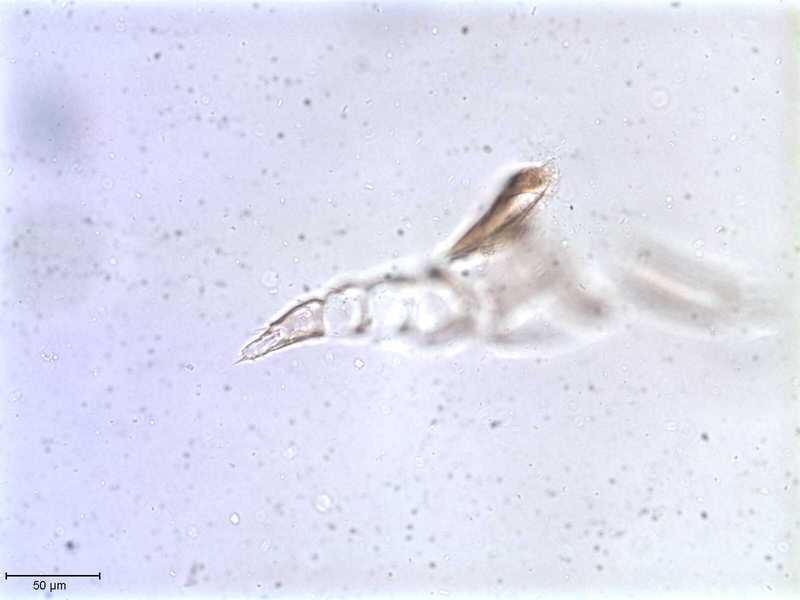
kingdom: Animalia
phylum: Arthropoda
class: Arachnida
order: Mesostigmata
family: Halarachnidae
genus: Orthohalarachne
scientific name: Orthohalarachne letalis
